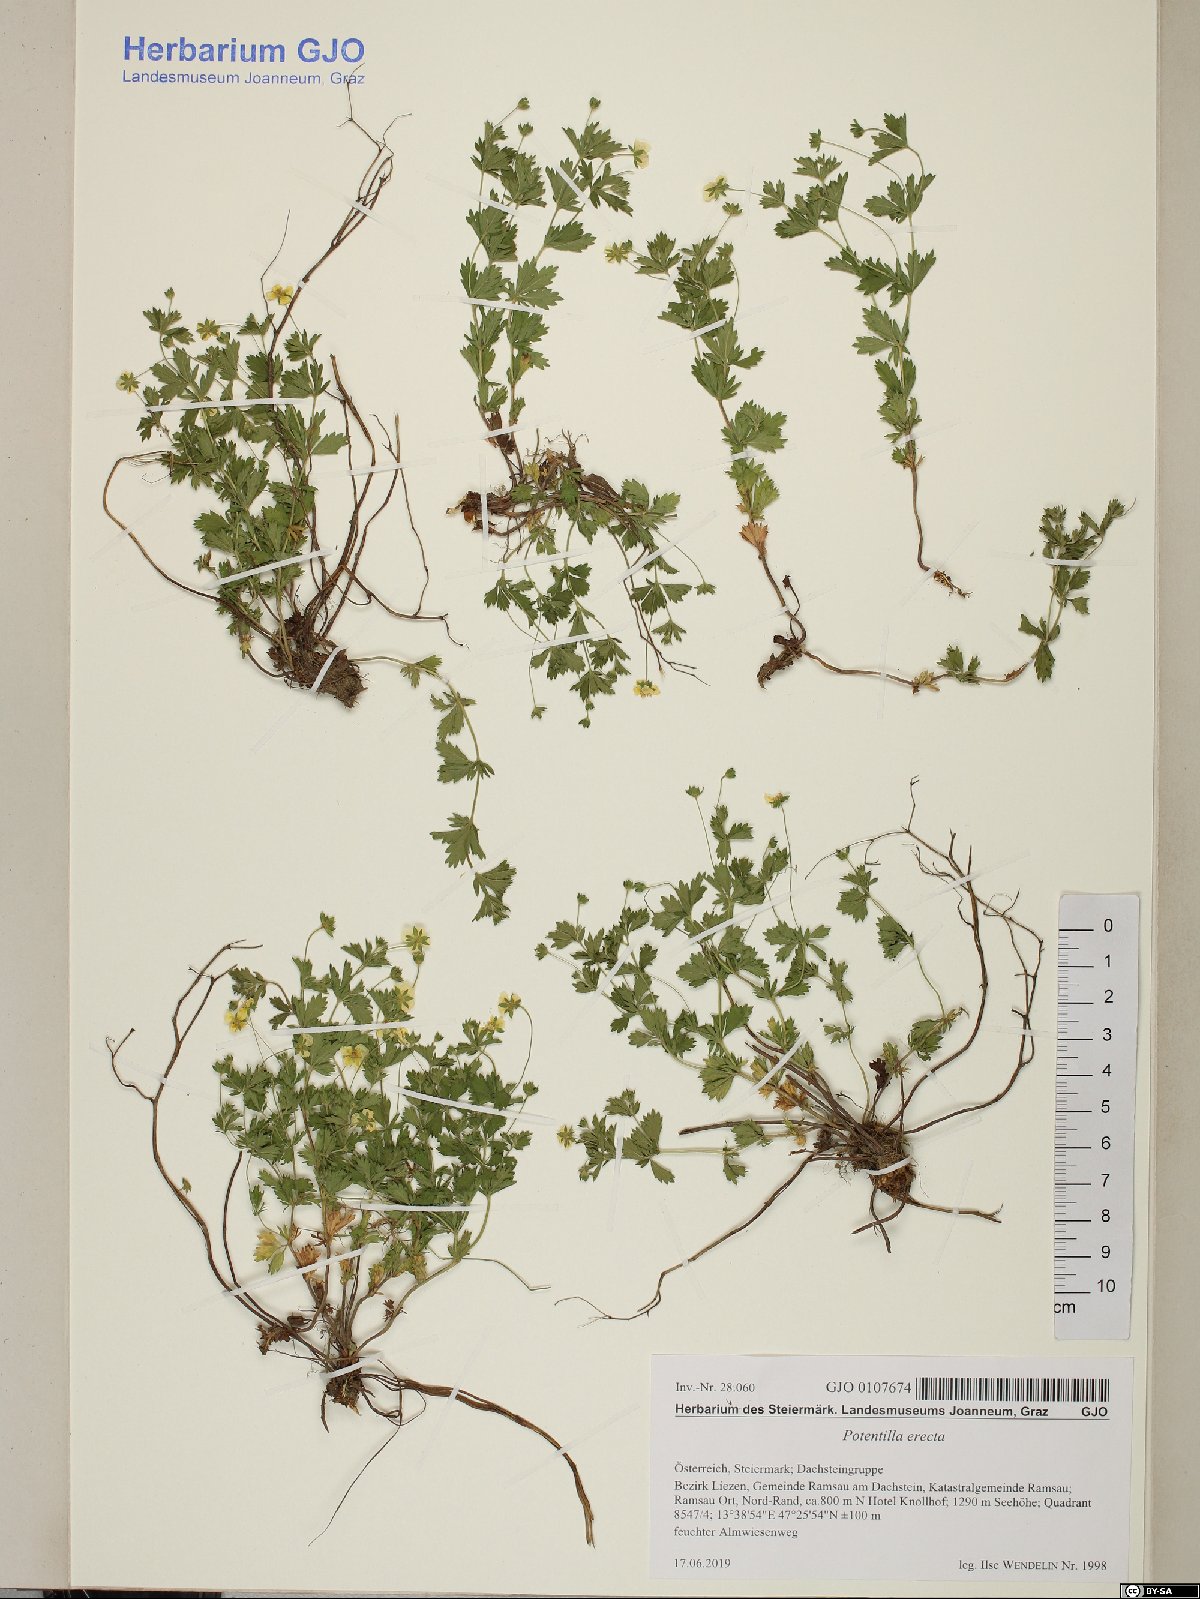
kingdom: Plantae
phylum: Tracheophyta
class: Magnoliopsida
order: Rosales
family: Rosaceae
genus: Potentilla
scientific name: Potentilla erecta
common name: Tormentil
